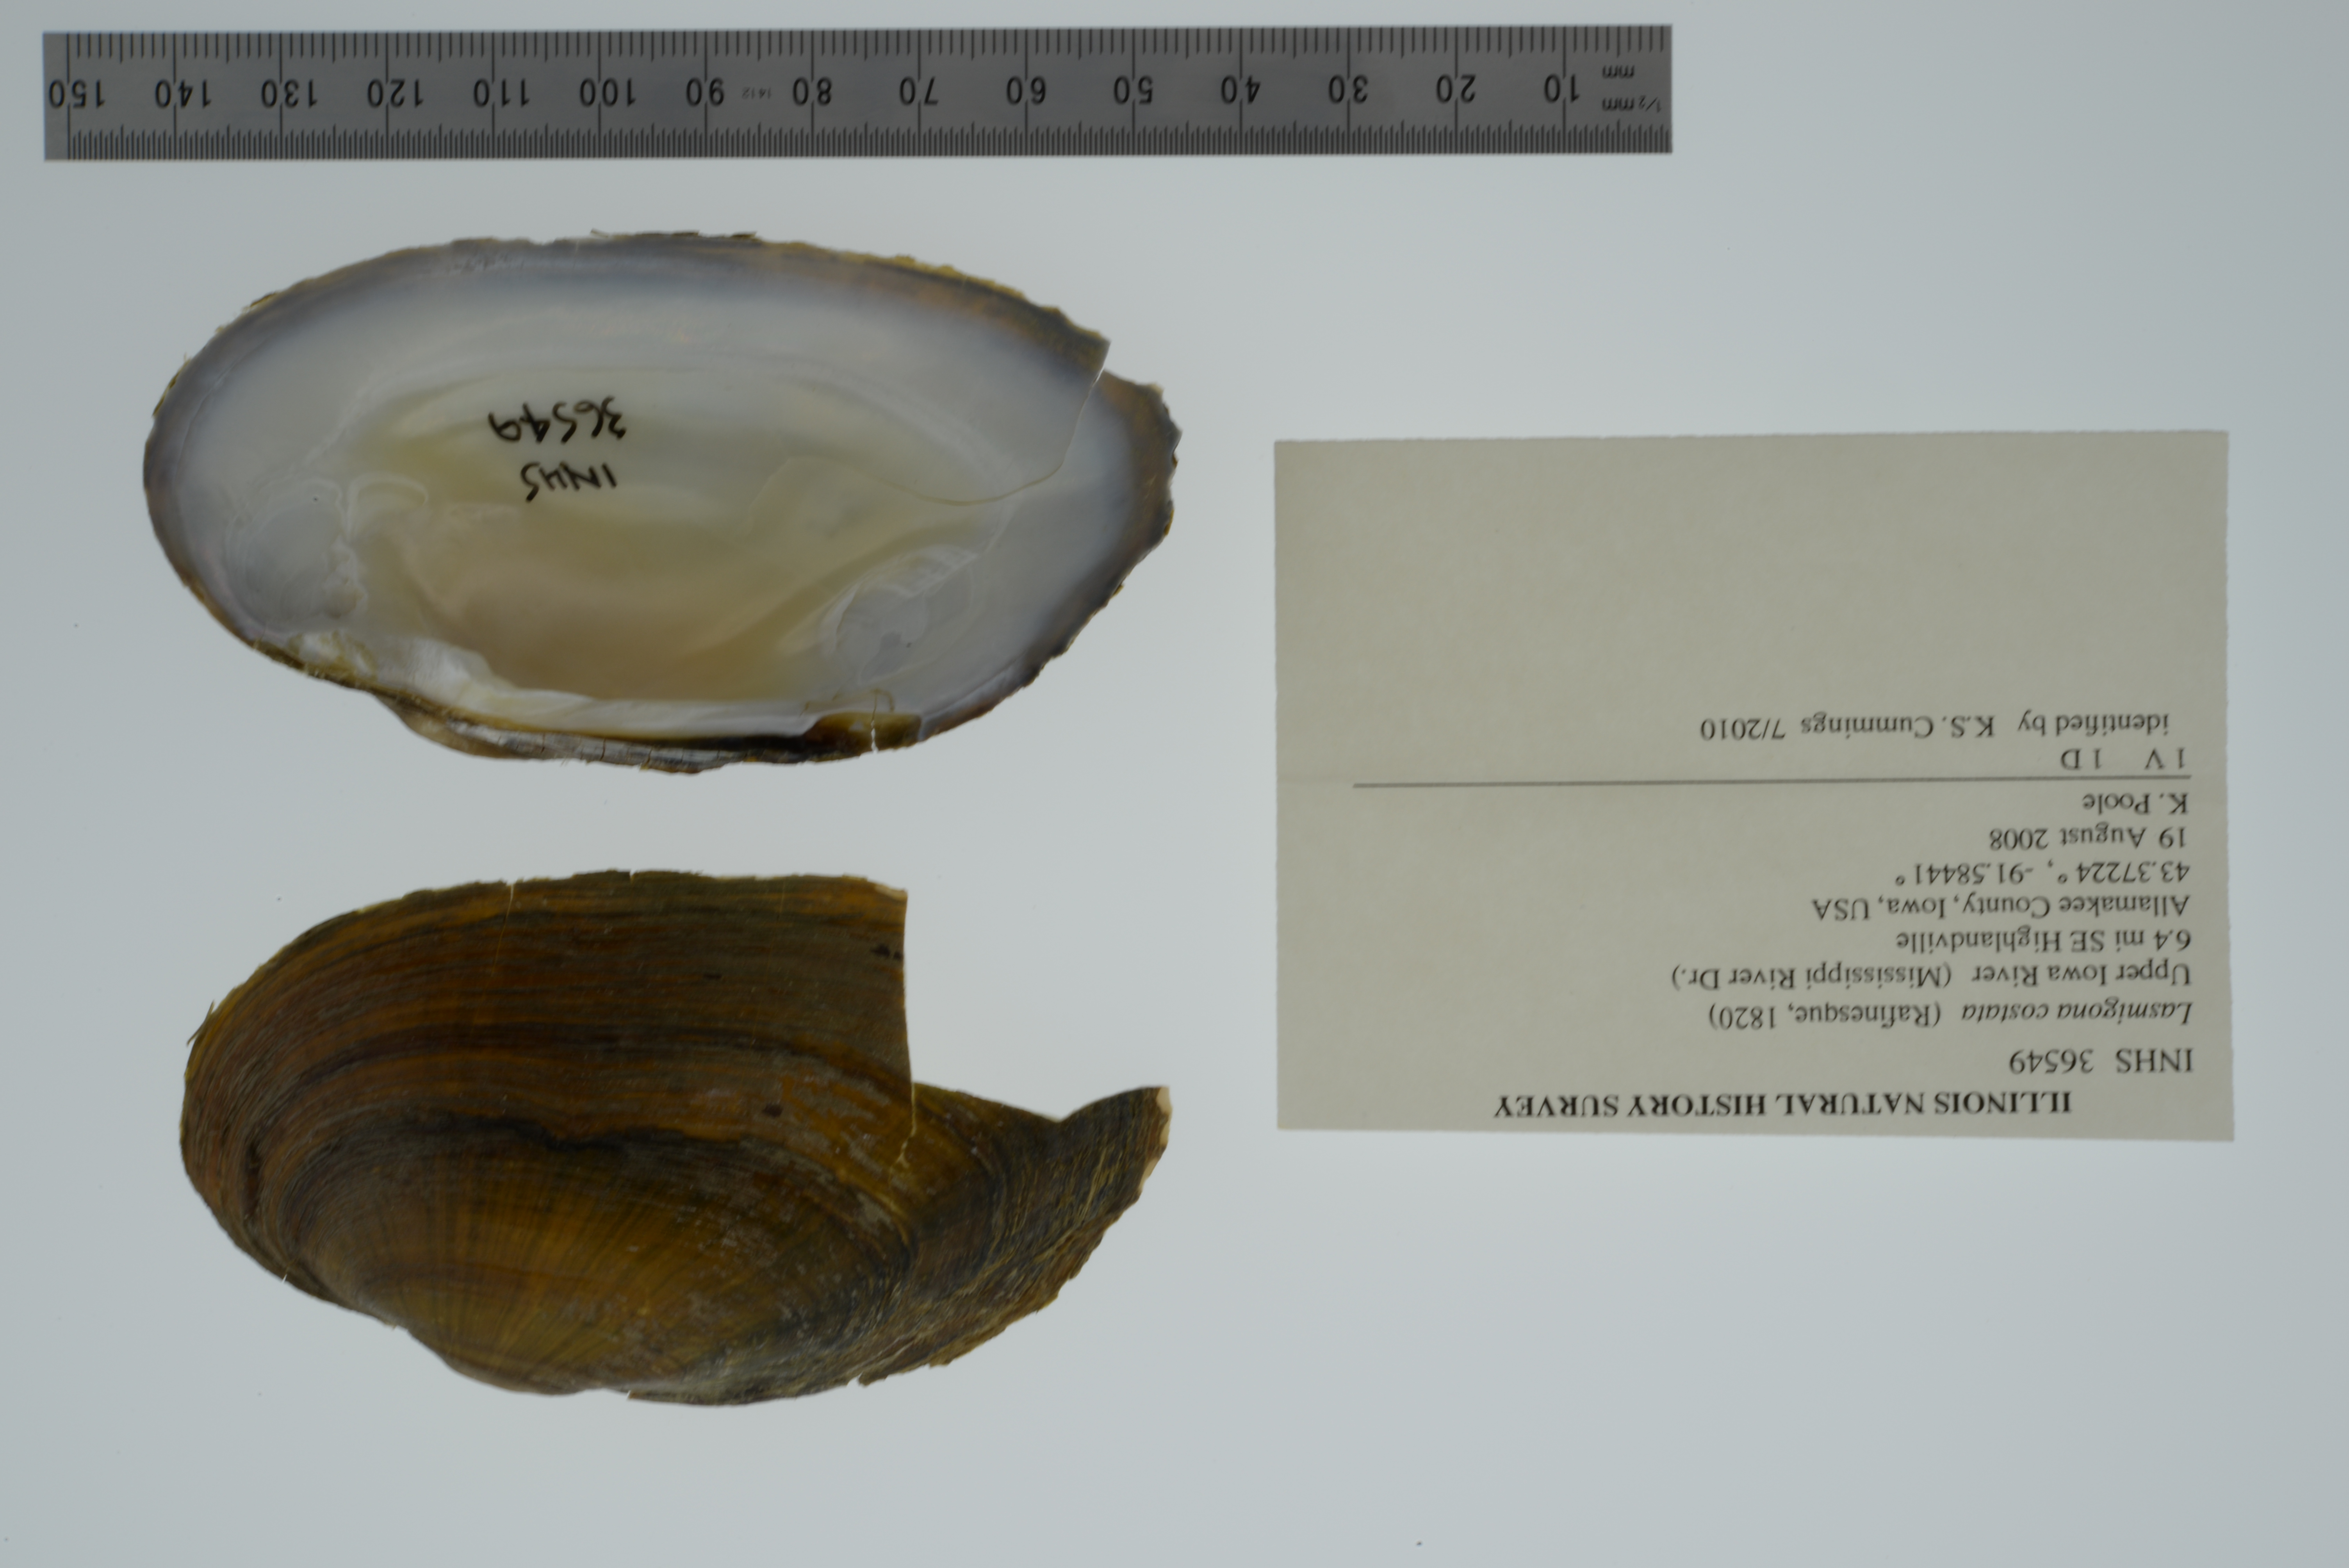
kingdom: Animalia
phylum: Mollusca
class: Bivalvia
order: Unionida
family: Unionidae
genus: Lasmigona
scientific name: Lasmigona costata
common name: Flutedshell
